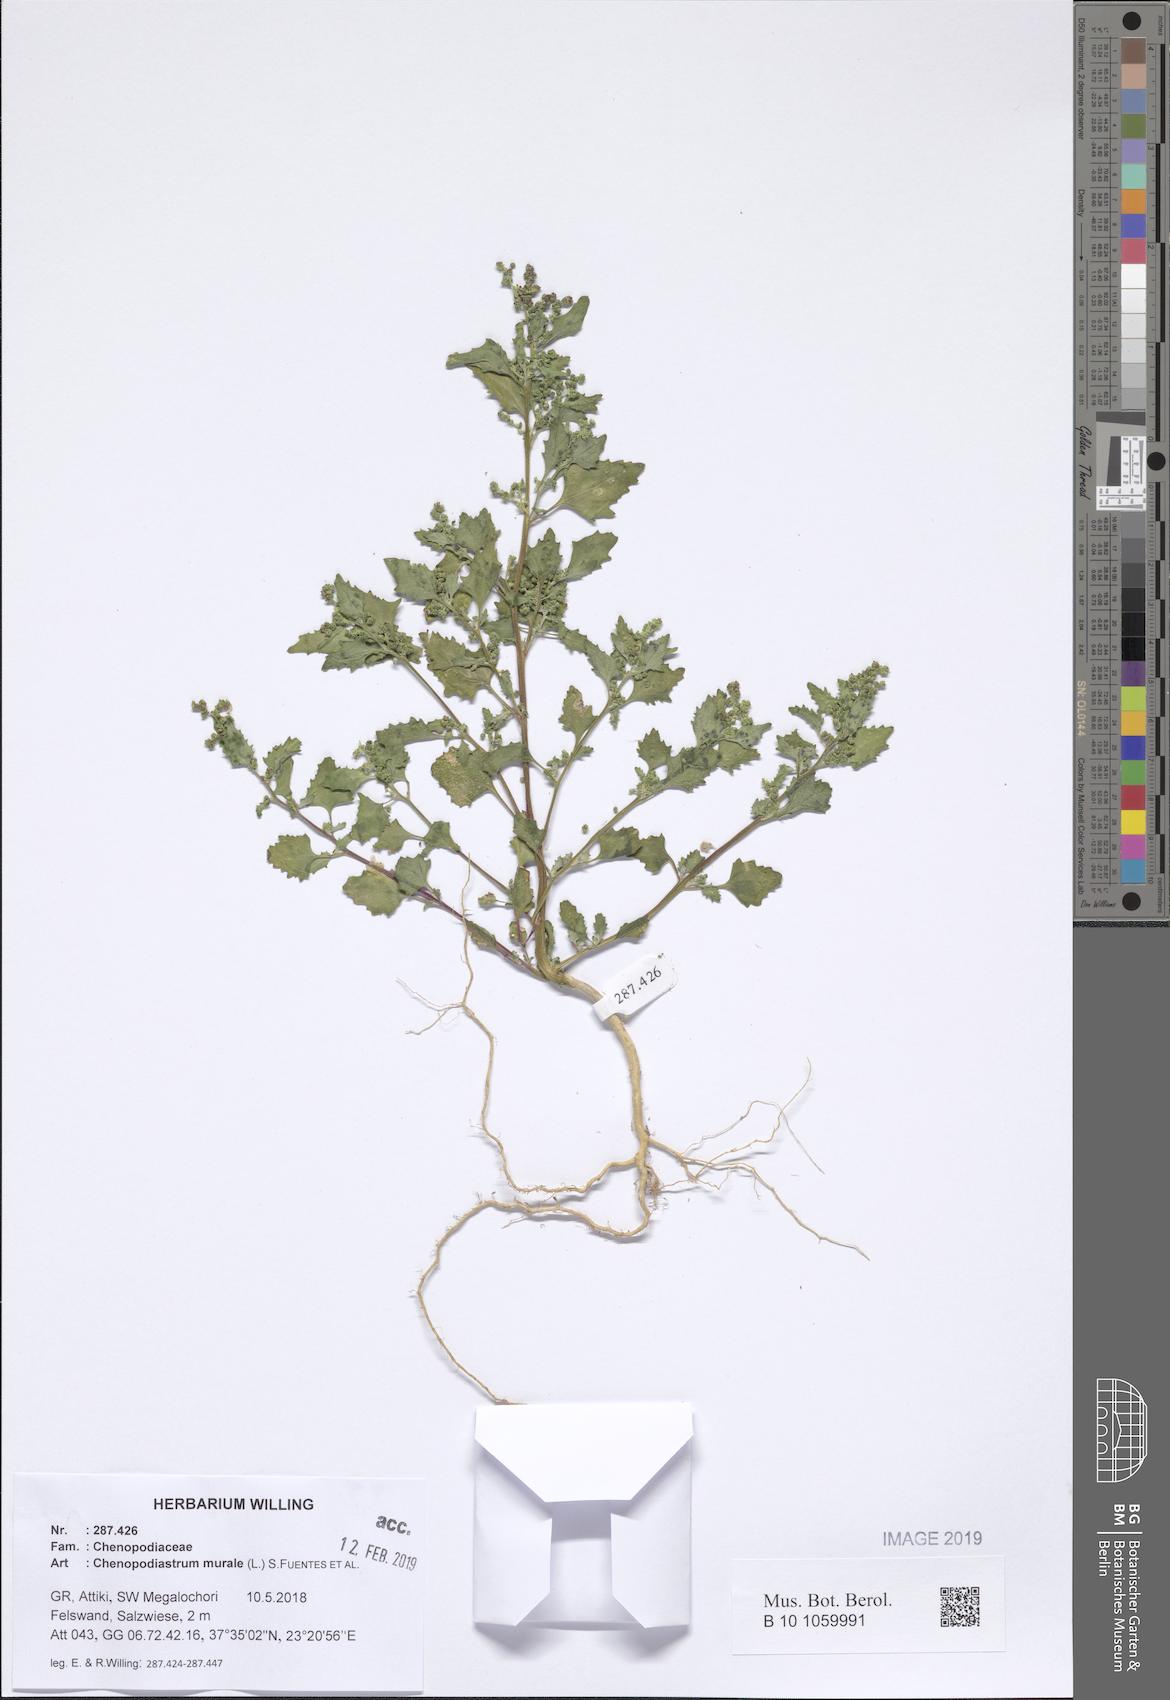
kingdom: Plantae
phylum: Tracheophyta
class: Magnoliopsida
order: Caryophyllales
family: Amaranthaceae
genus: Chenopodiastrum
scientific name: Chenopodiastrum murale
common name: Sowbane
